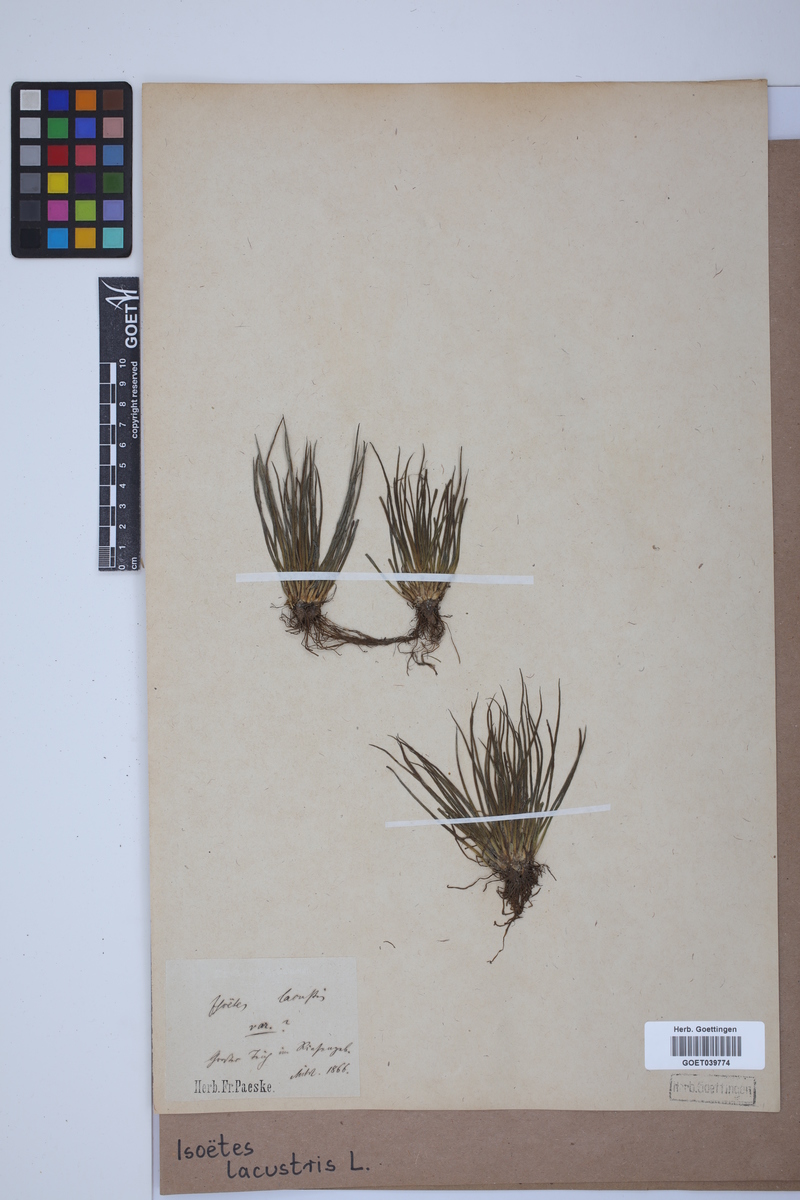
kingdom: Plantae
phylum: Tracheophyta
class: Lycopodiopsida
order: Isoetales
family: Isoetaceae
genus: Isoetes
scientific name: Isoetes lacustris
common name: Common quillwort
